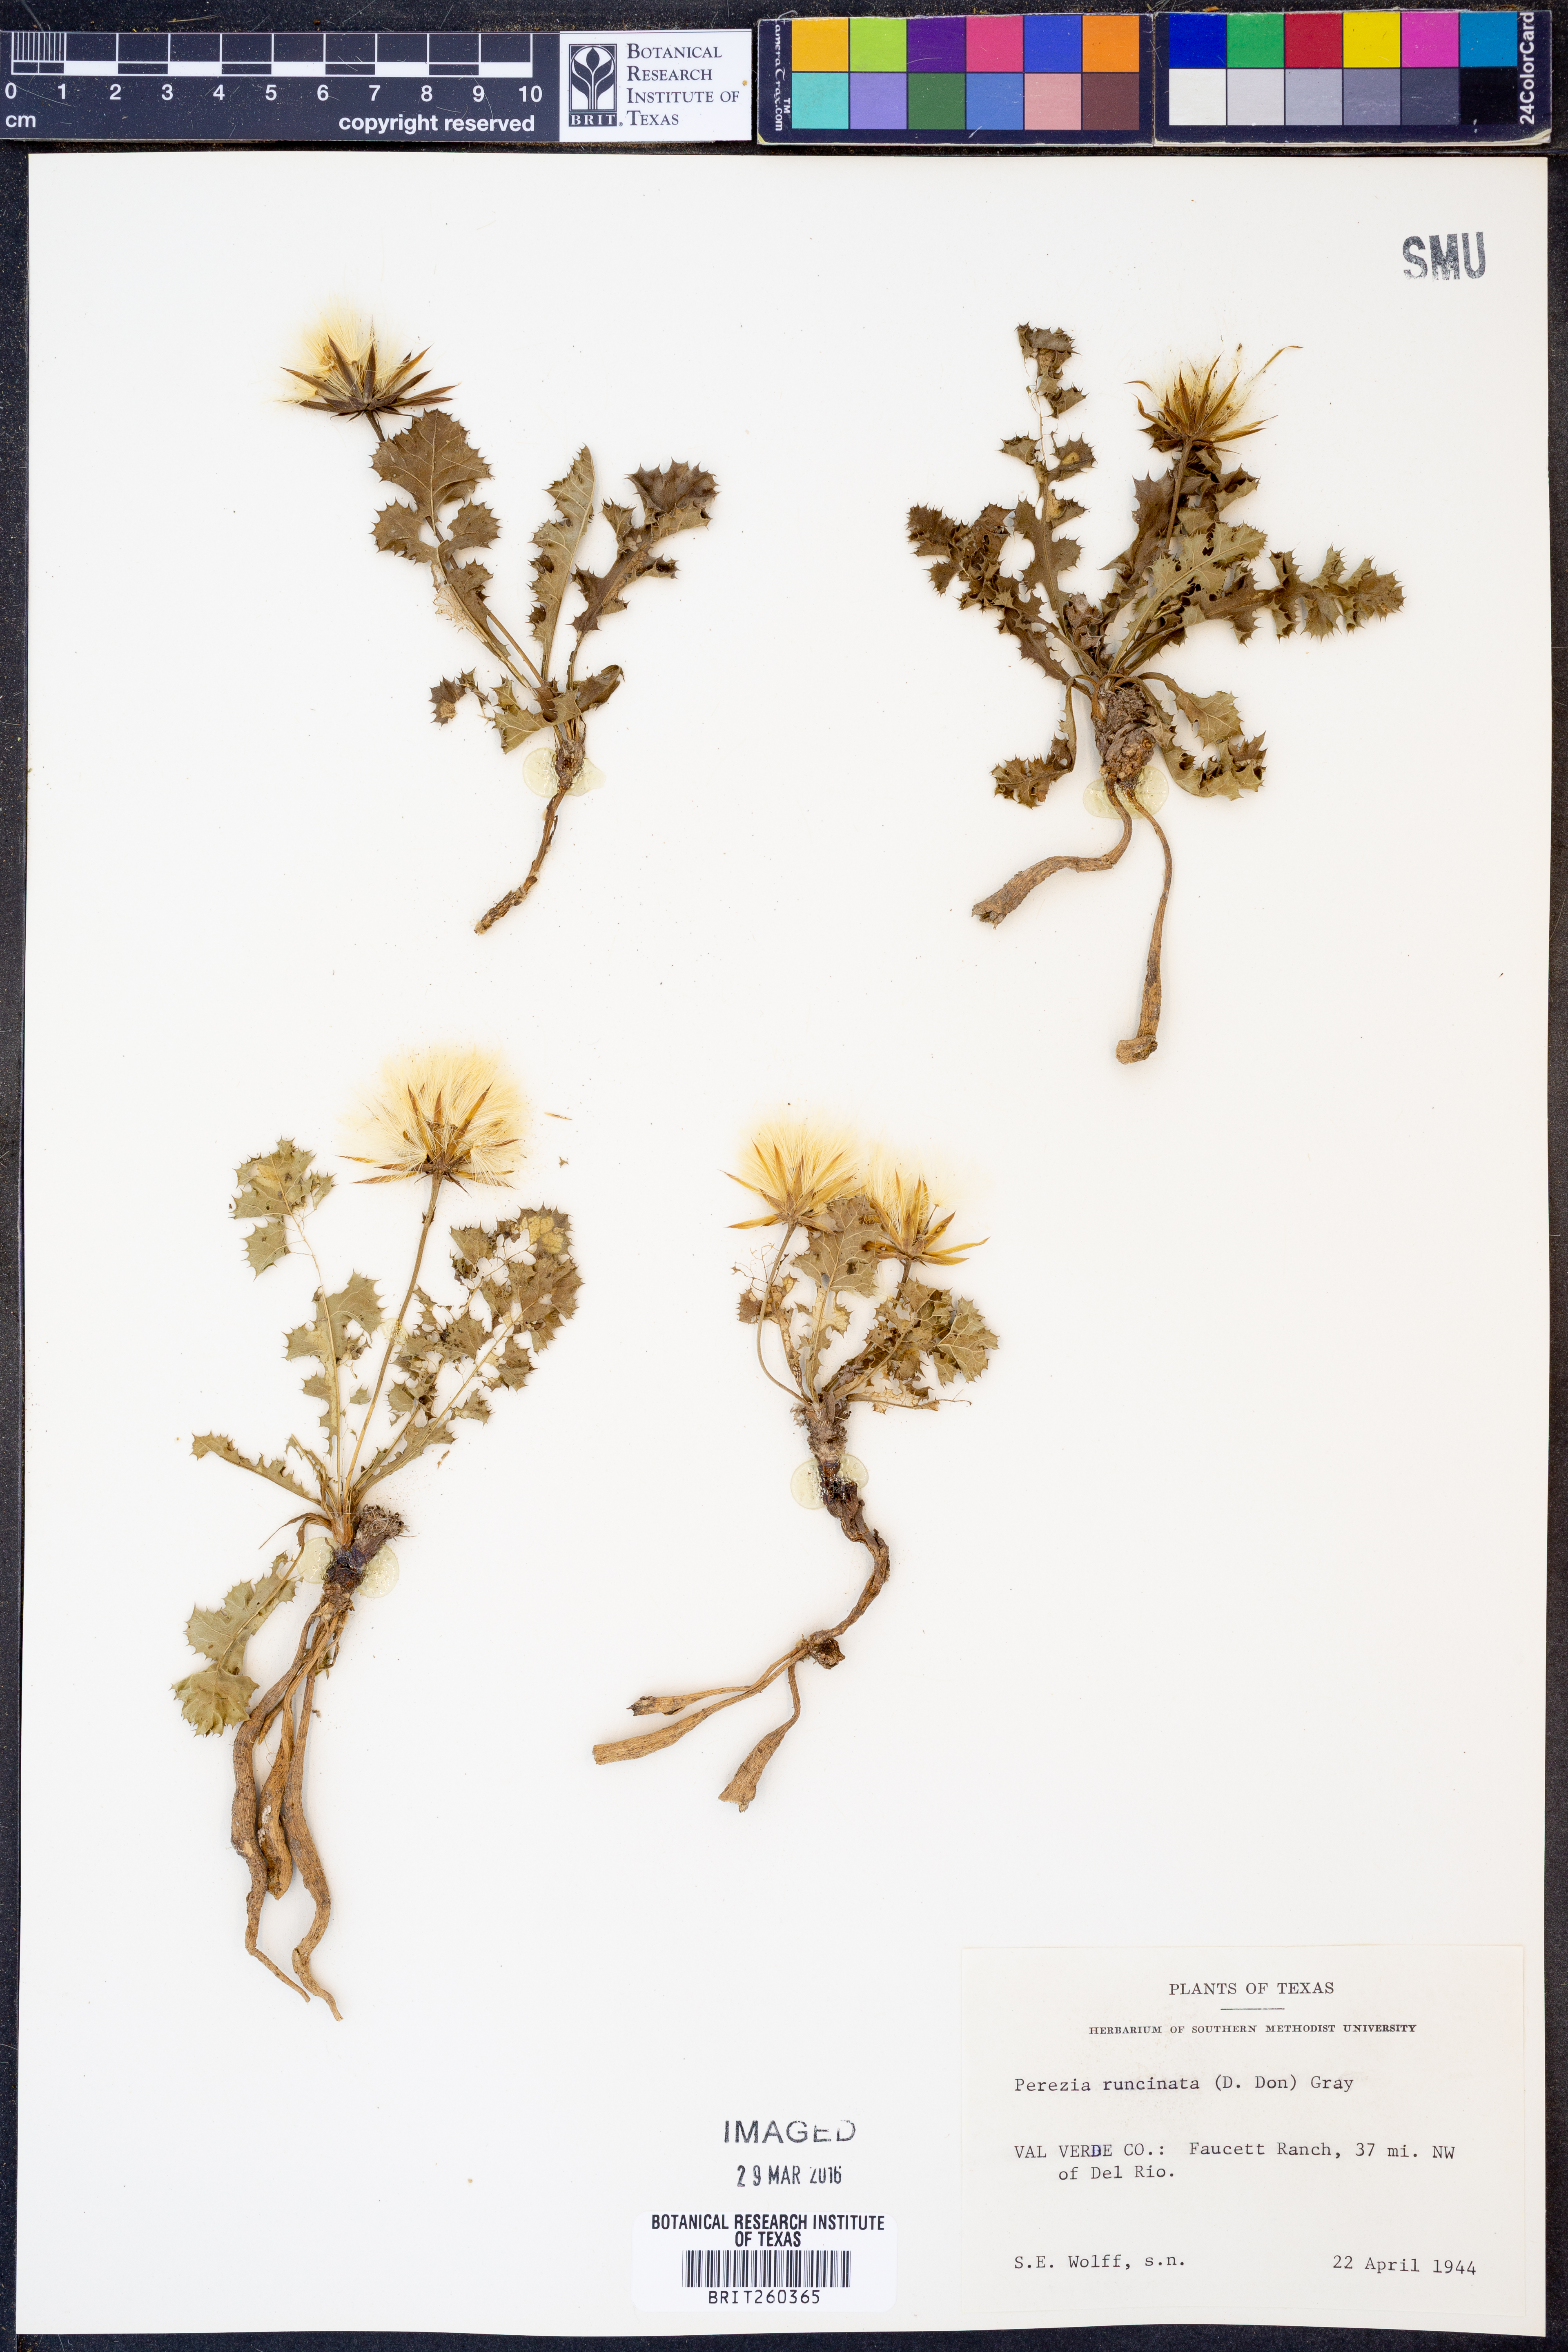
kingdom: Plantae
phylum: Tracheophyta
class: Magnoliopsida
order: Asterales
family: Asteraceae
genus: Acourtia
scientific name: Acourtia runcinata
